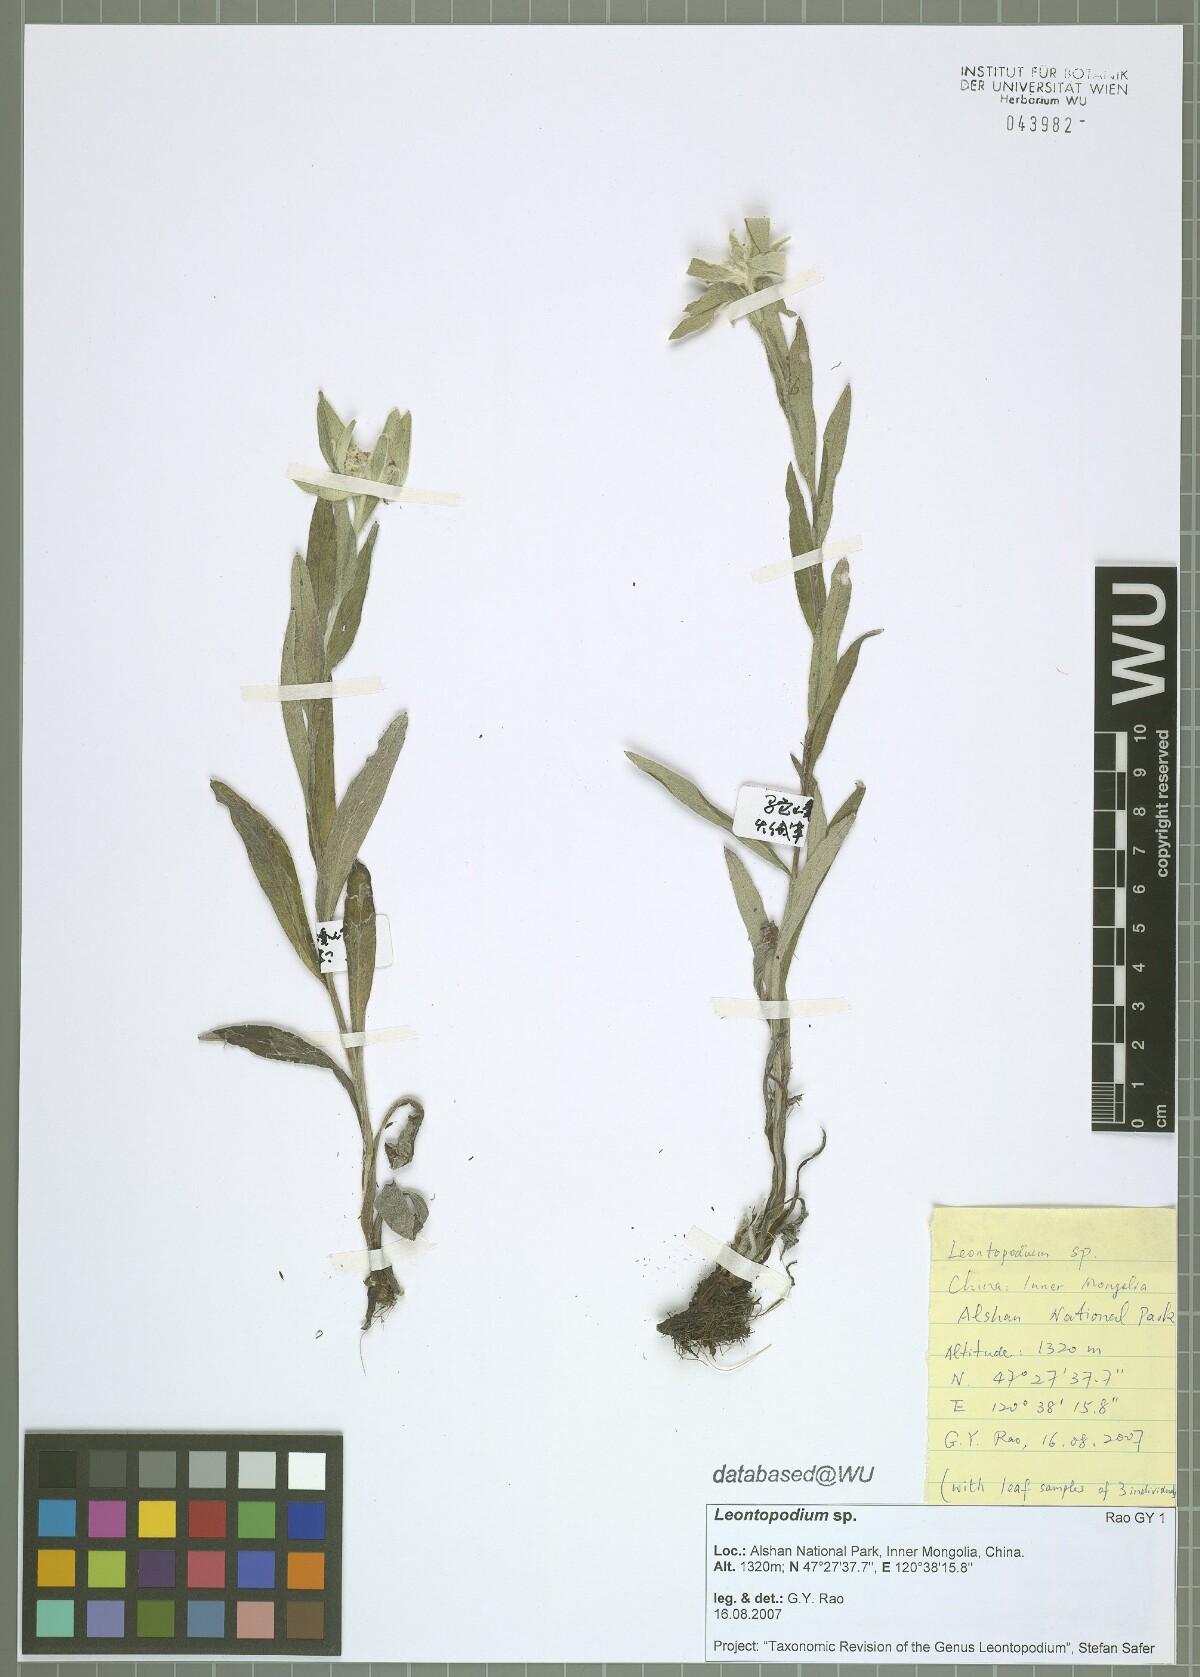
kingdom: Plantae
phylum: Tracheophyta
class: Magnoliopsida
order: Asterales
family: Asteraceae
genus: Leontopodium
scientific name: Leontopodium
